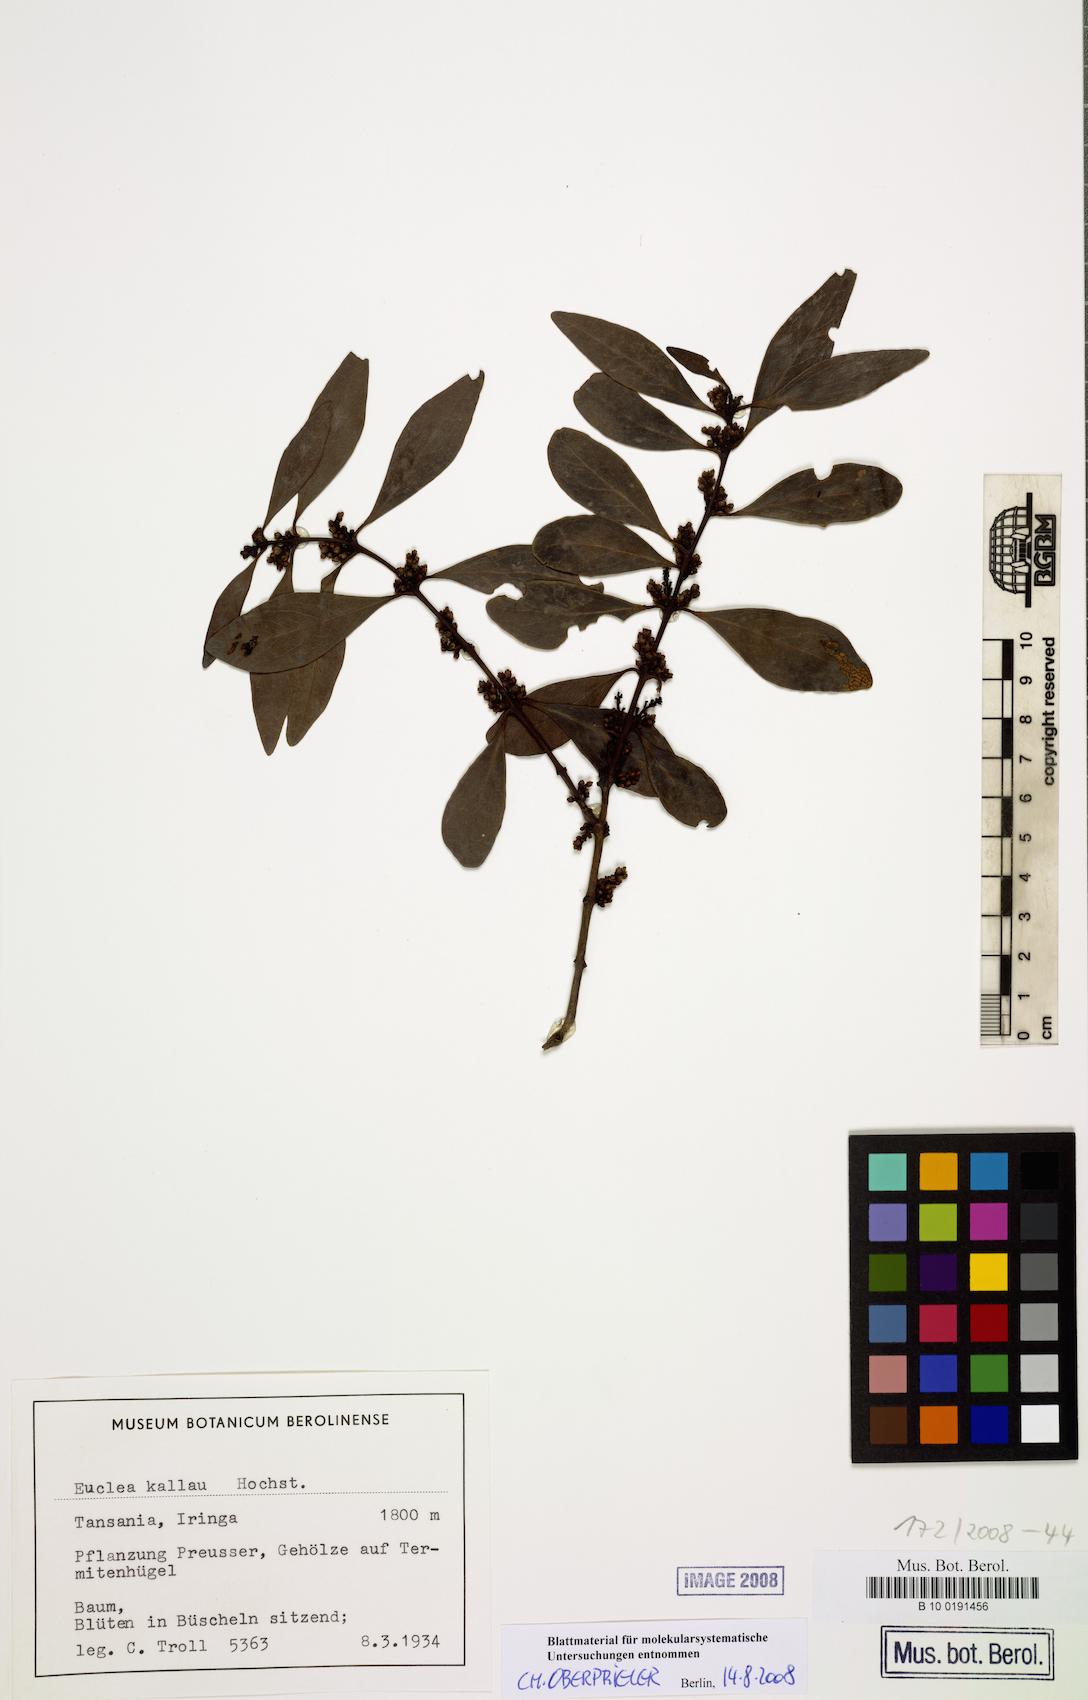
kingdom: Plantae
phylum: Tracheophyta
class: Magnoliopsida
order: Ericales
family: Ebenaceae
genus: Euclea
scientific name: Euclea racemosa
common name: Dune guarri
